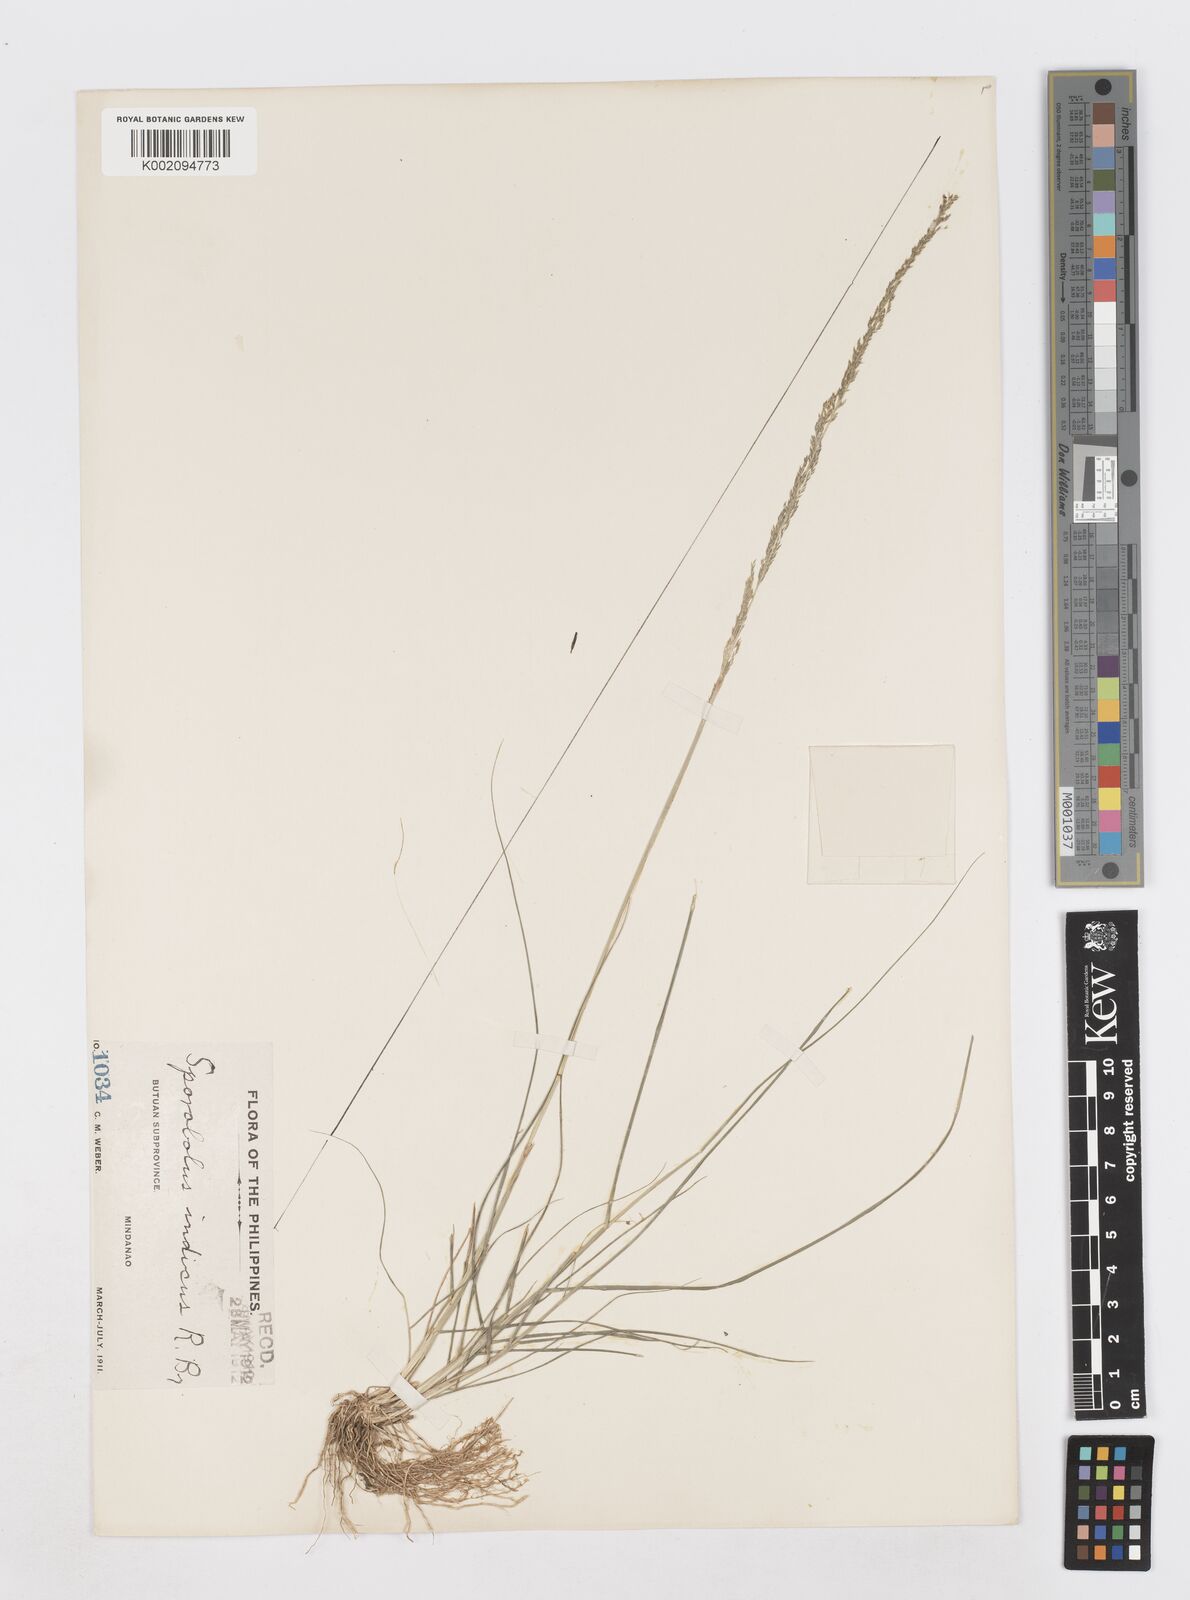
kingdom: Plantae
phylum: Tracheophyta
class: Liliopsida
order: Poales
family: Poaceae
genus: Sporobolus
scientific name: Sporobolus fertilis
